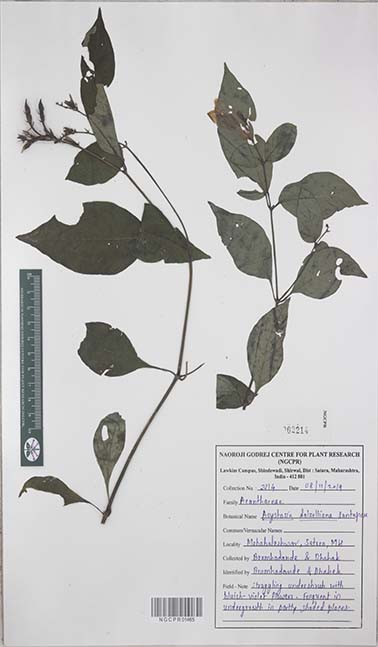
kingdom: Plantae
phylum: Tracheophyta
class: Magnoliopsida
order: Lamiales
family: Acanthaceae
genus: Asystasia
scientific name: Asystasia dalzelliana
